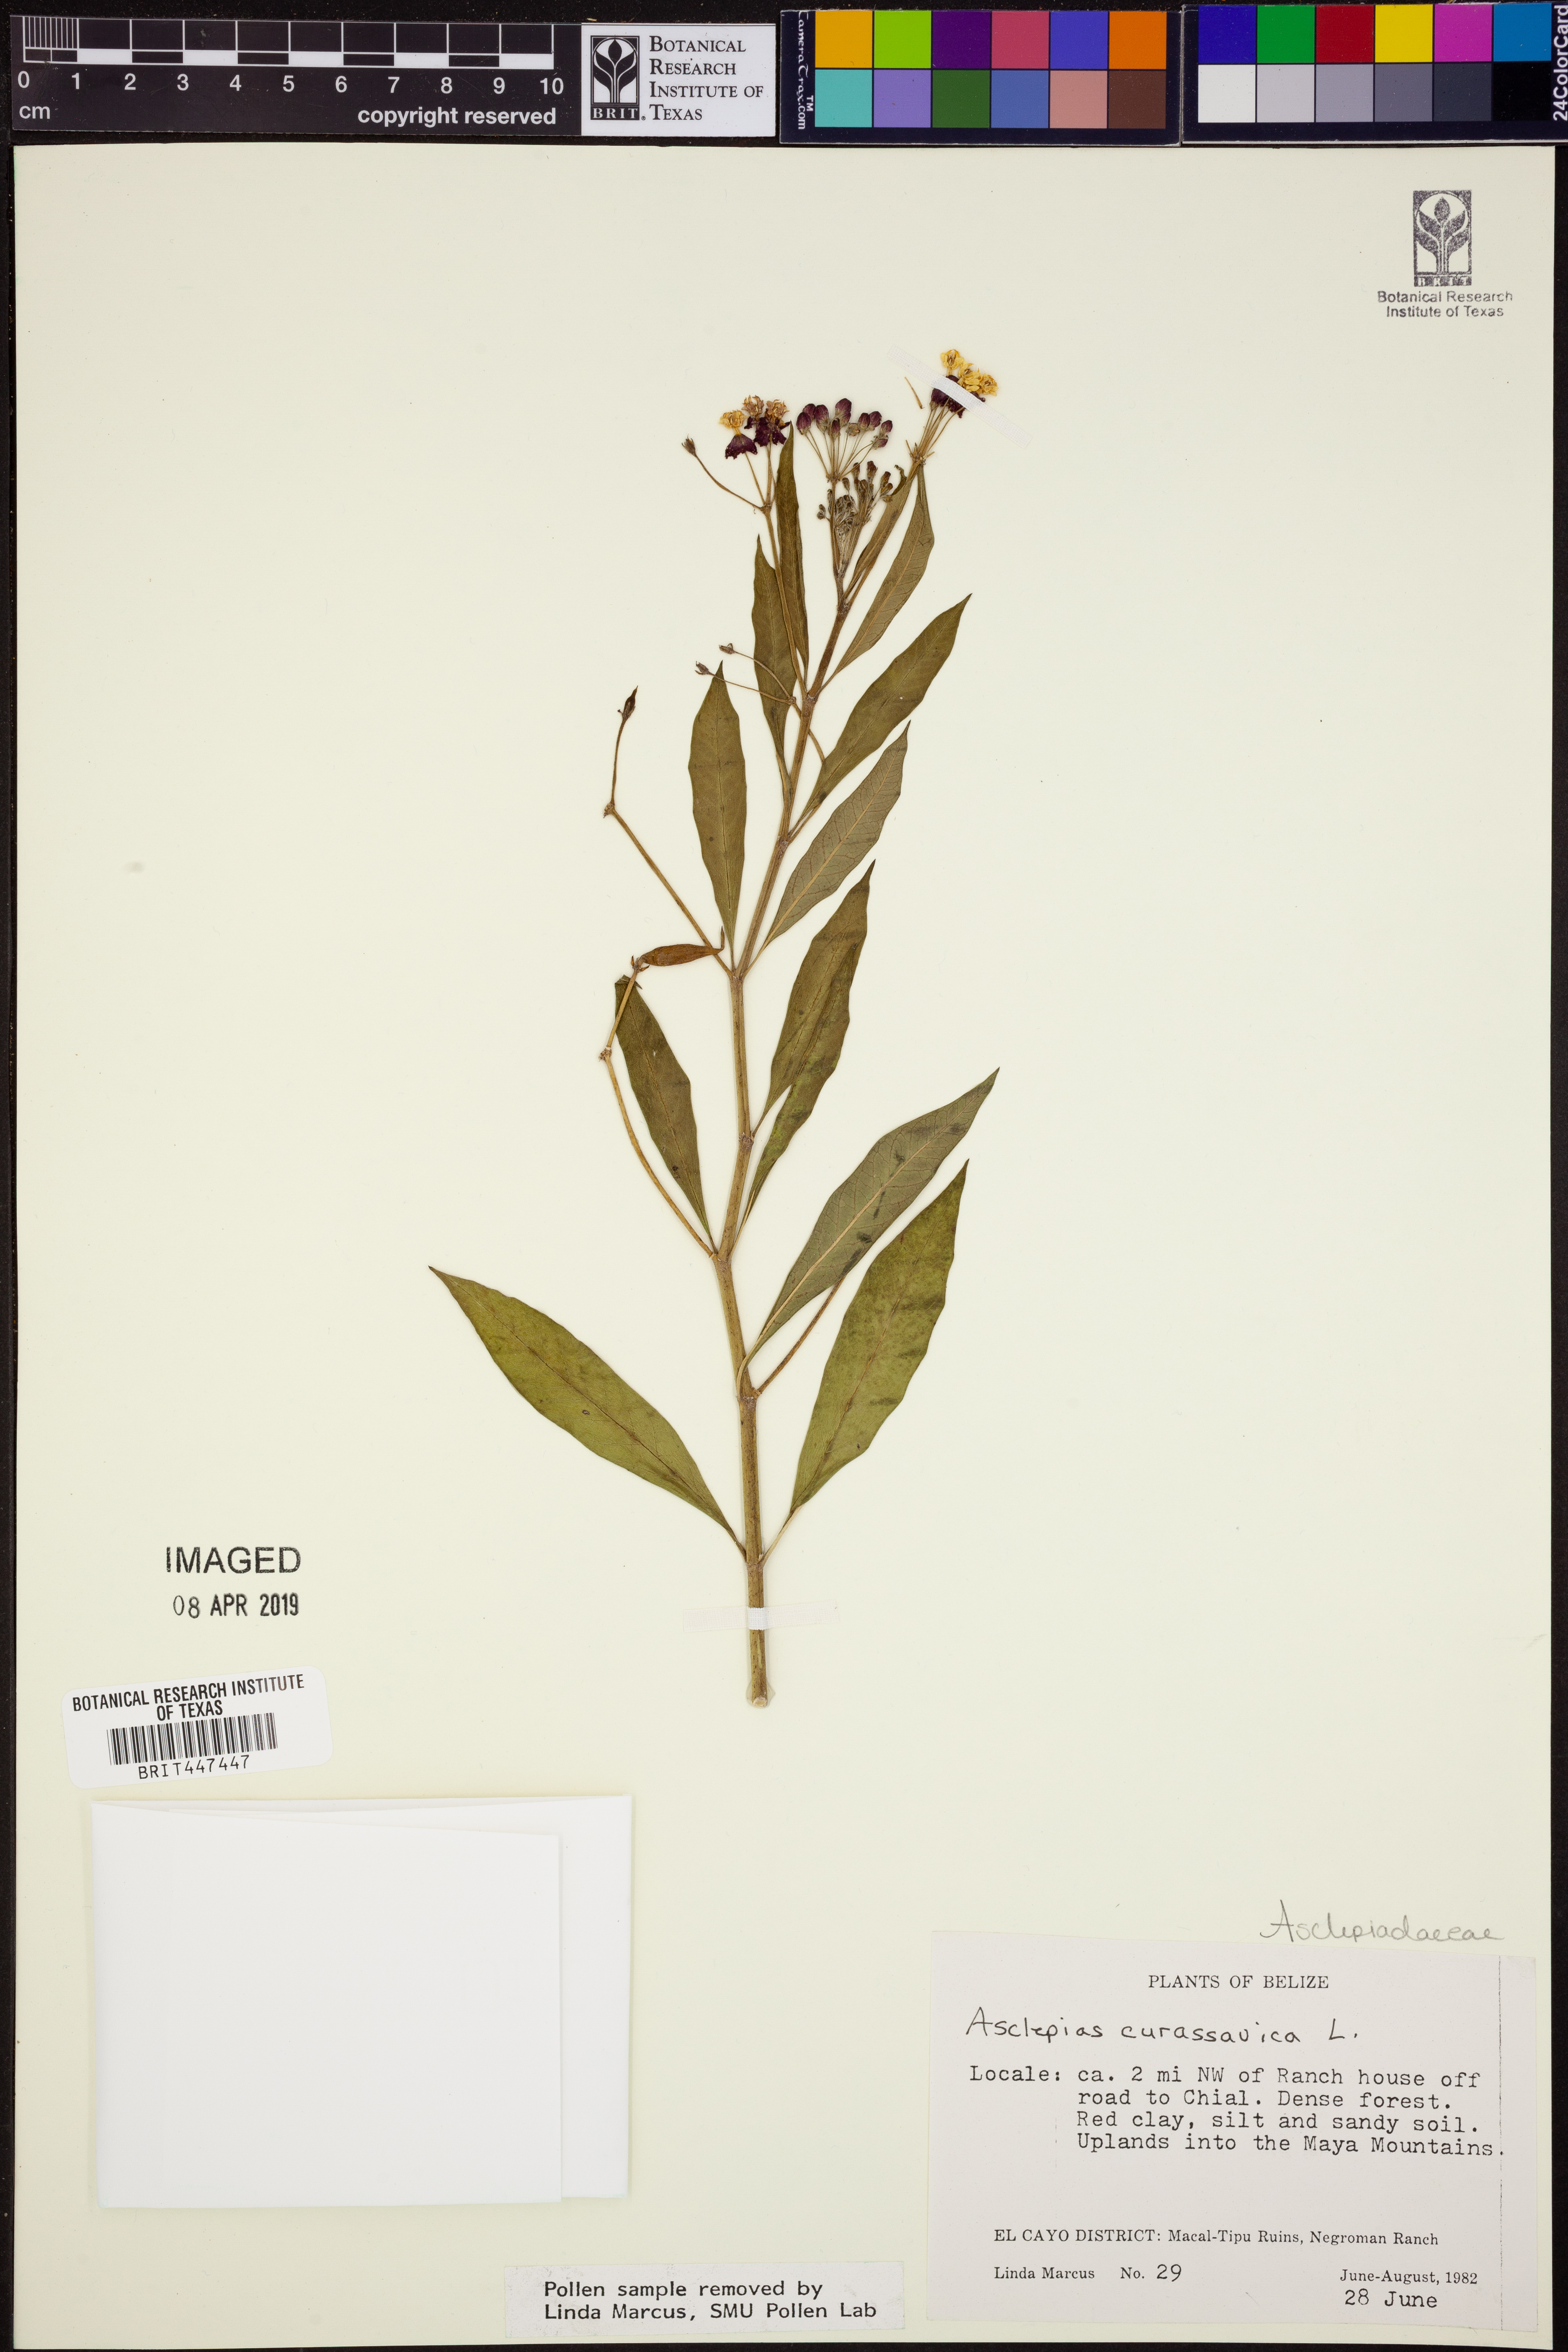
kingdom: Plantae
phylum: Tracheophyta
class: Magnoliopsida
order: Gentianales
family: Apocynaceae
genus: Asclepias
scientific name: Asclepias curassavica
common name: Bloodflower
